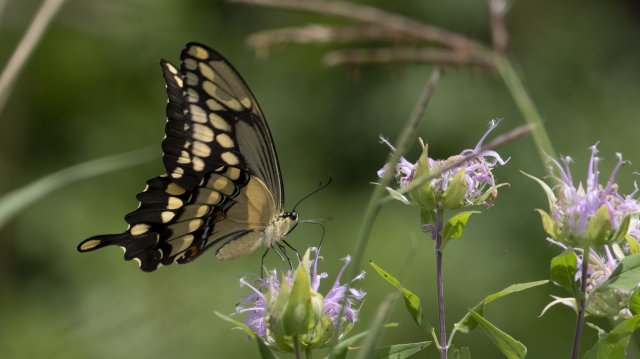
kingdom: Animalia
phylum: Arthropoda
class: Insecta
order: Lepidoptera
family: Papilionidae
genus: Papilio
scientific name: Papilio cresphontes
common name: Eastern Giant Swallowtail
